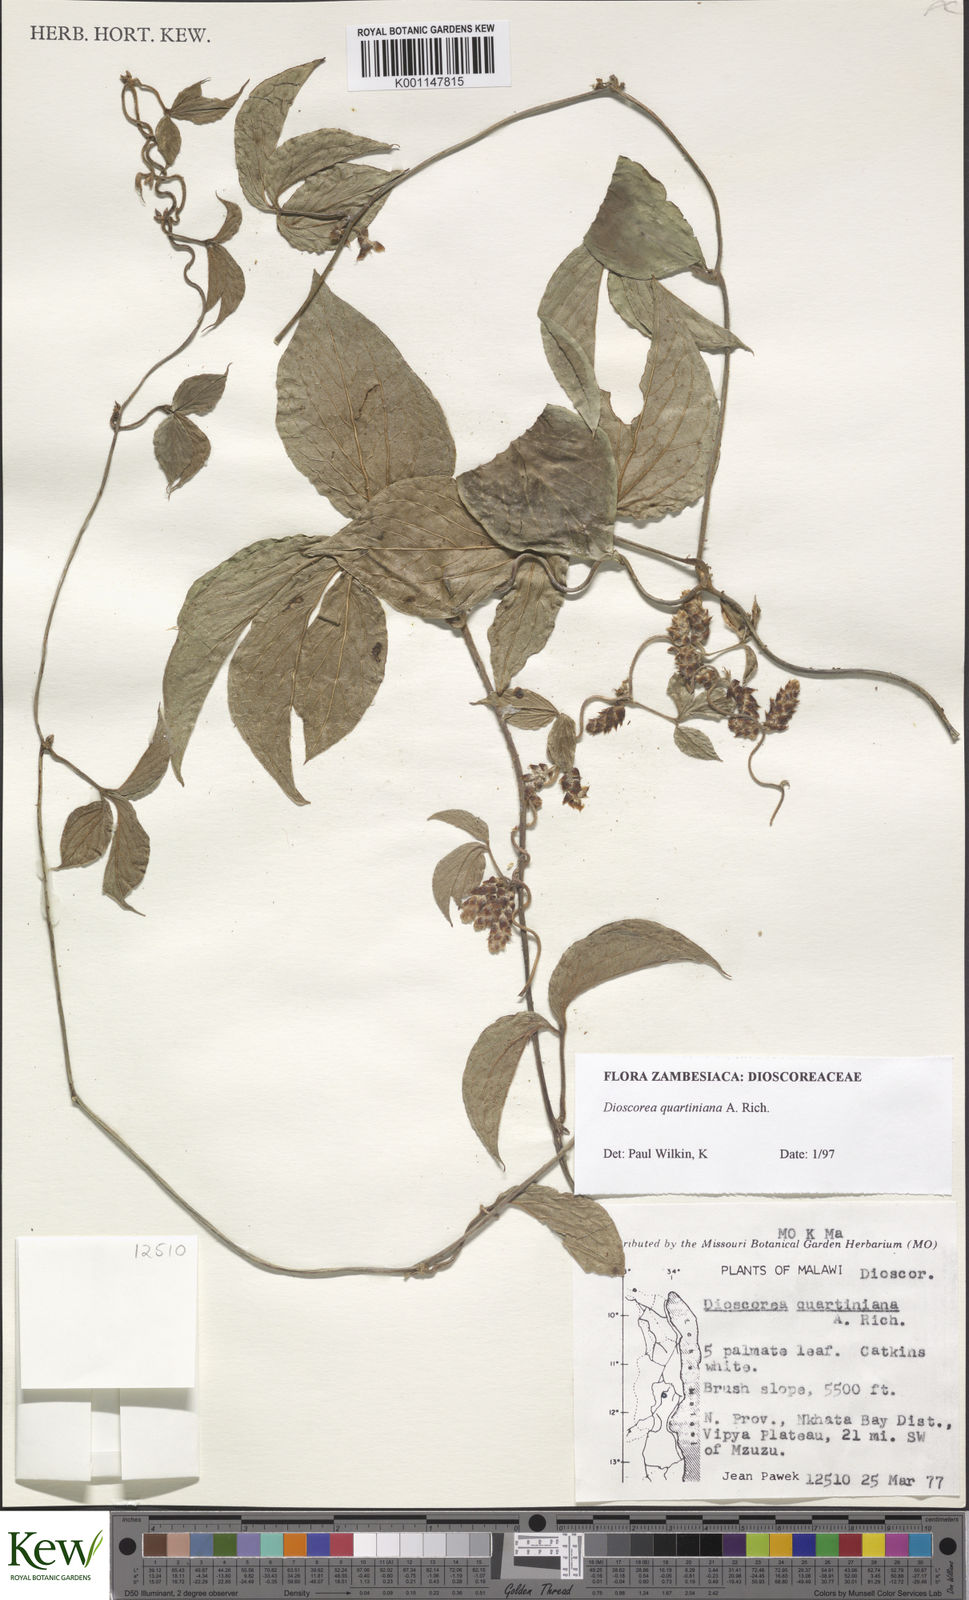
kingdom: Plantae
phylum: Tracheophyta
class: Liliopsida
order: Dioscoreales
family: Dioscoreaceae
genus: Dioscorea
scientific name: Dioscorea quartiniana
